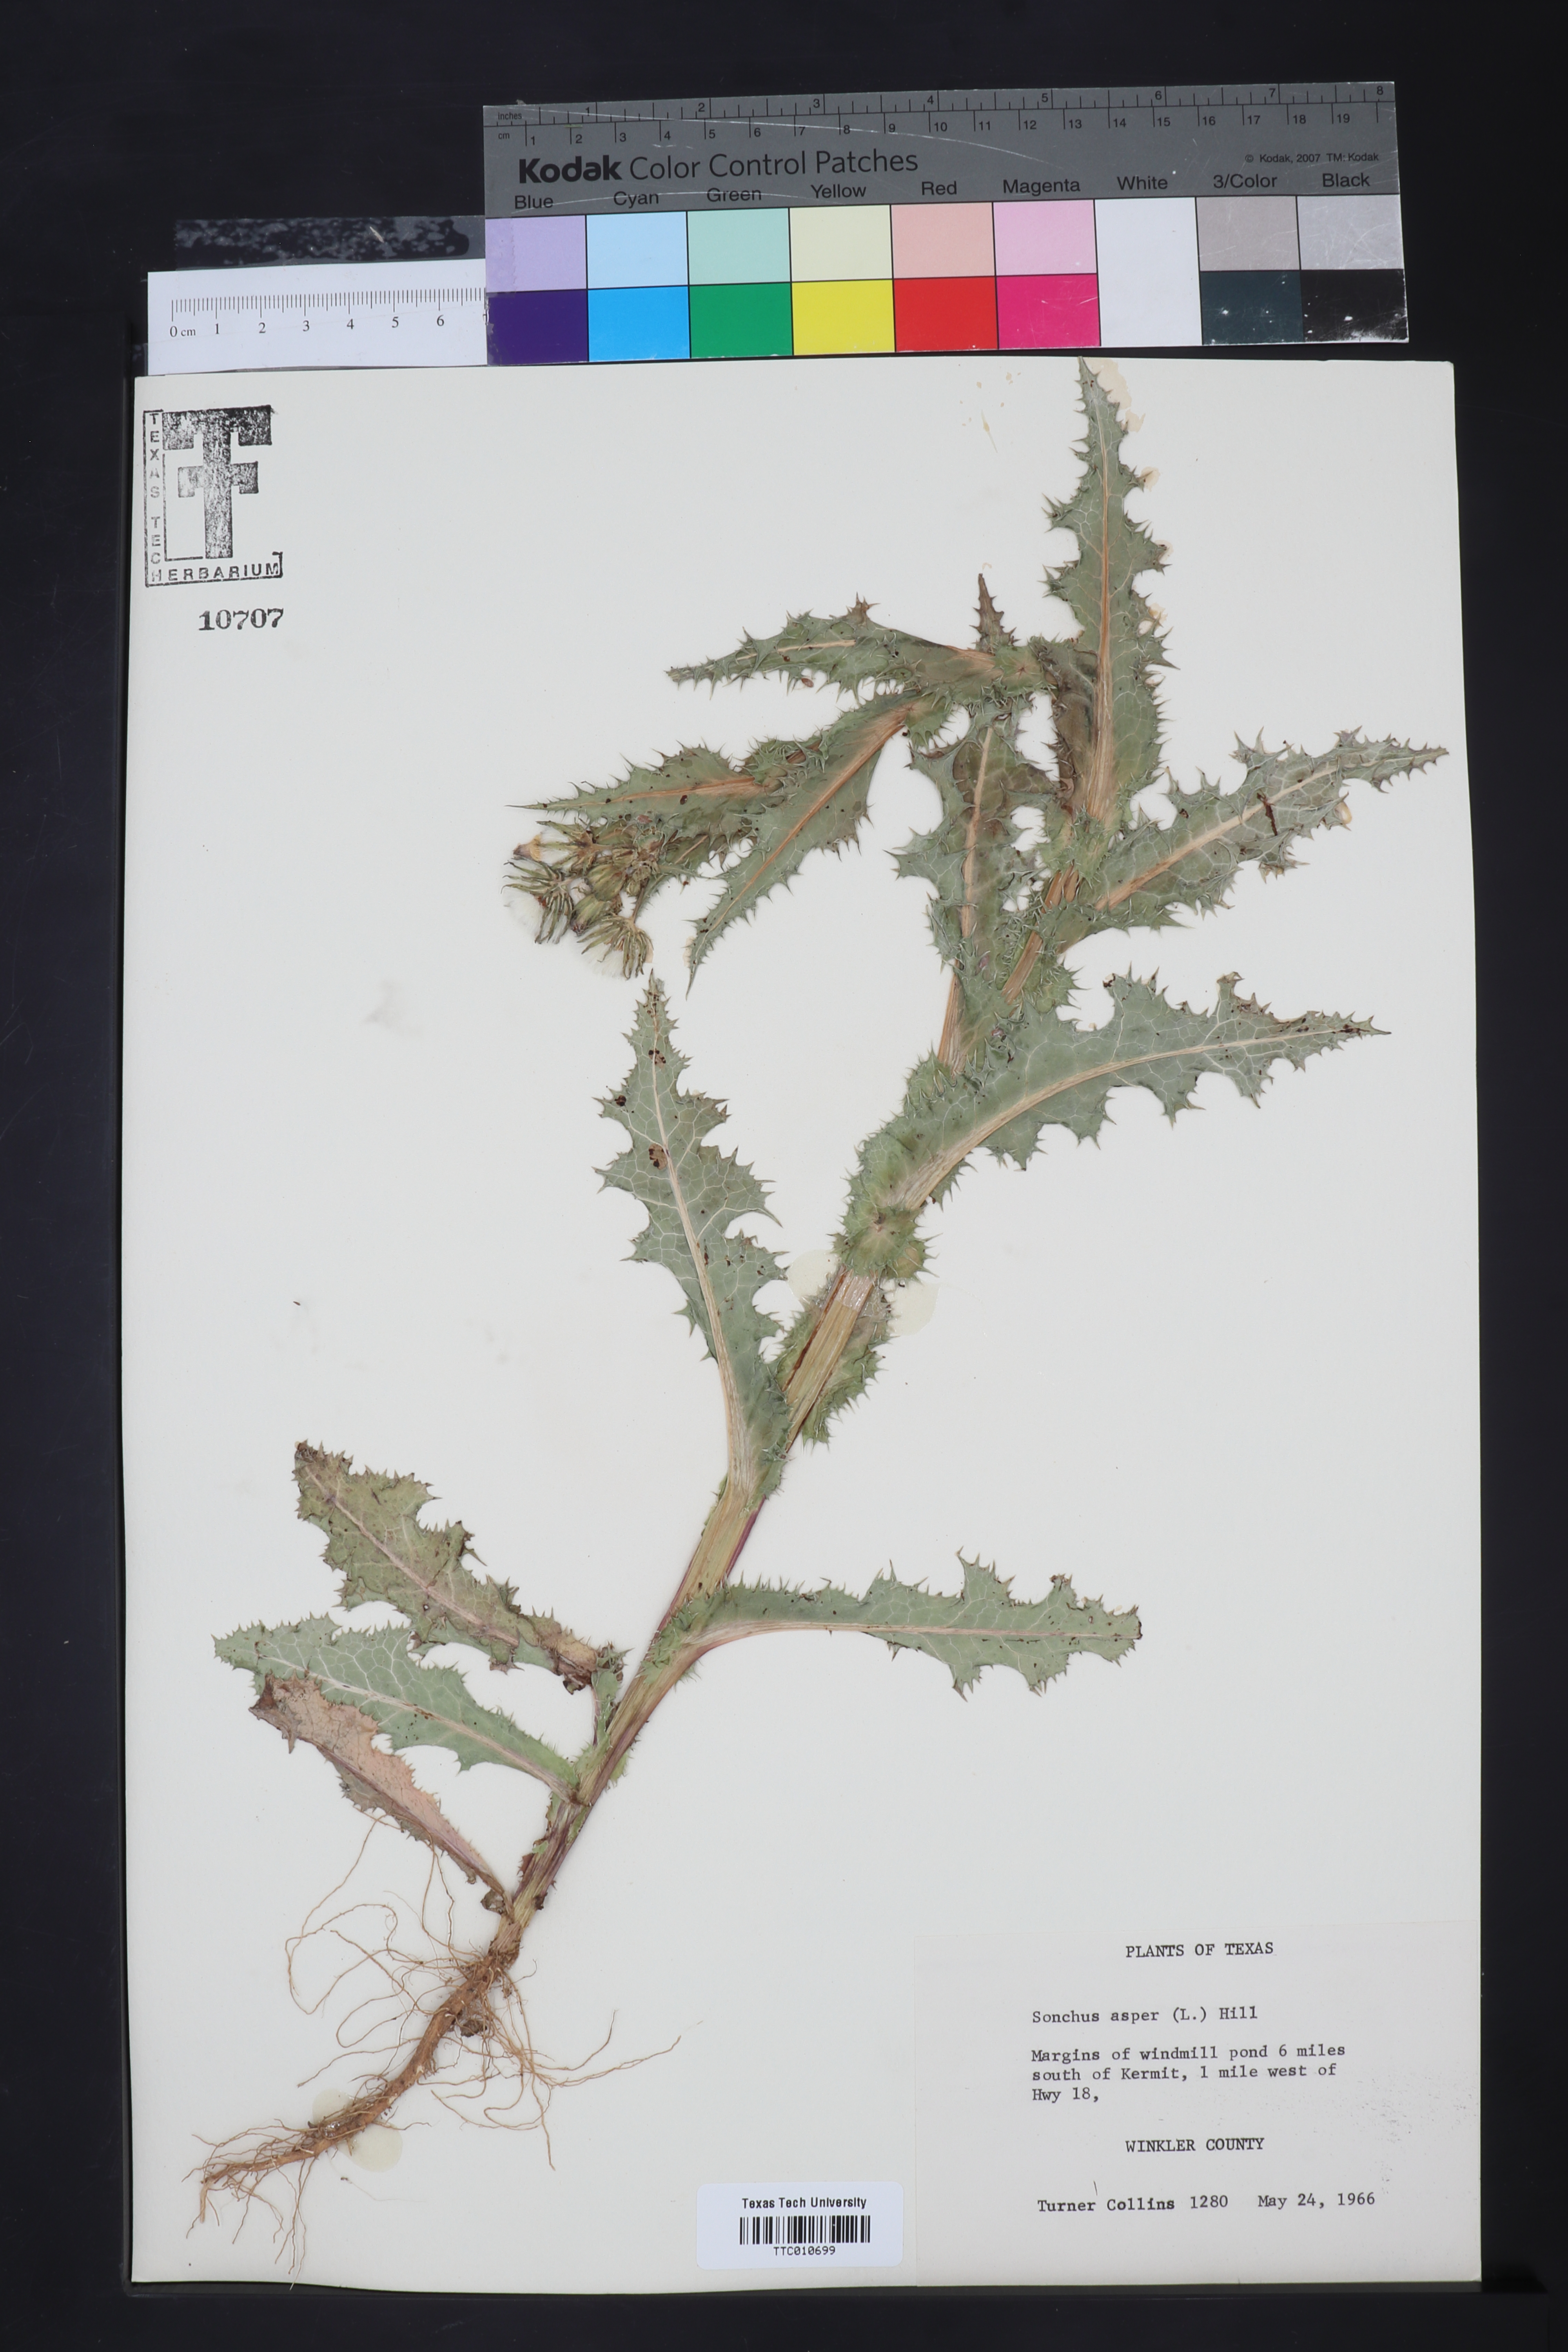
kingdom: Plantae
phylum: Tracheophyta
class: Magnoliopsida
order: Asterales
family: Asteraceae
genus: Sonchus
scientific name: Sonchus asper
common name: Prickly sow-thistle
